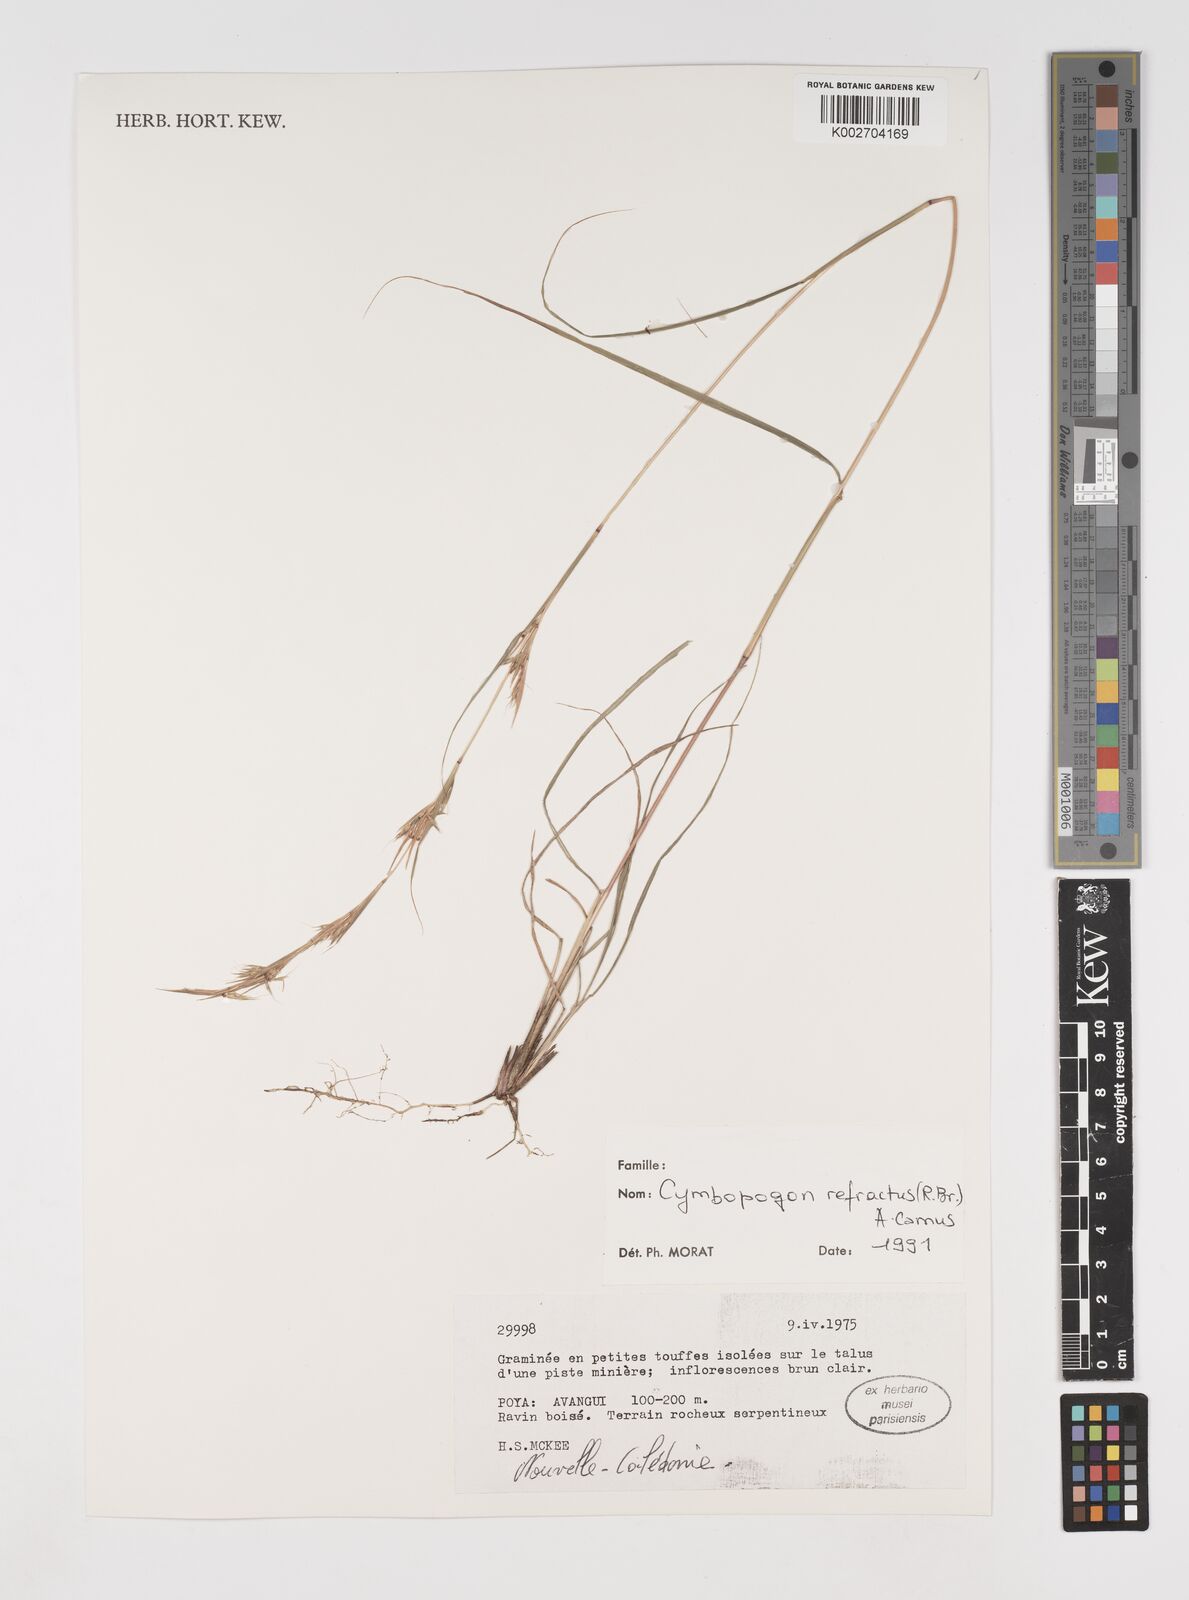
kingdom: Plantae
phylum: Tracheophyta
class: Liliopsida
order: Poales
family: Poaceae
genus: Cymbopogon
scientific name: Cymbopogon
